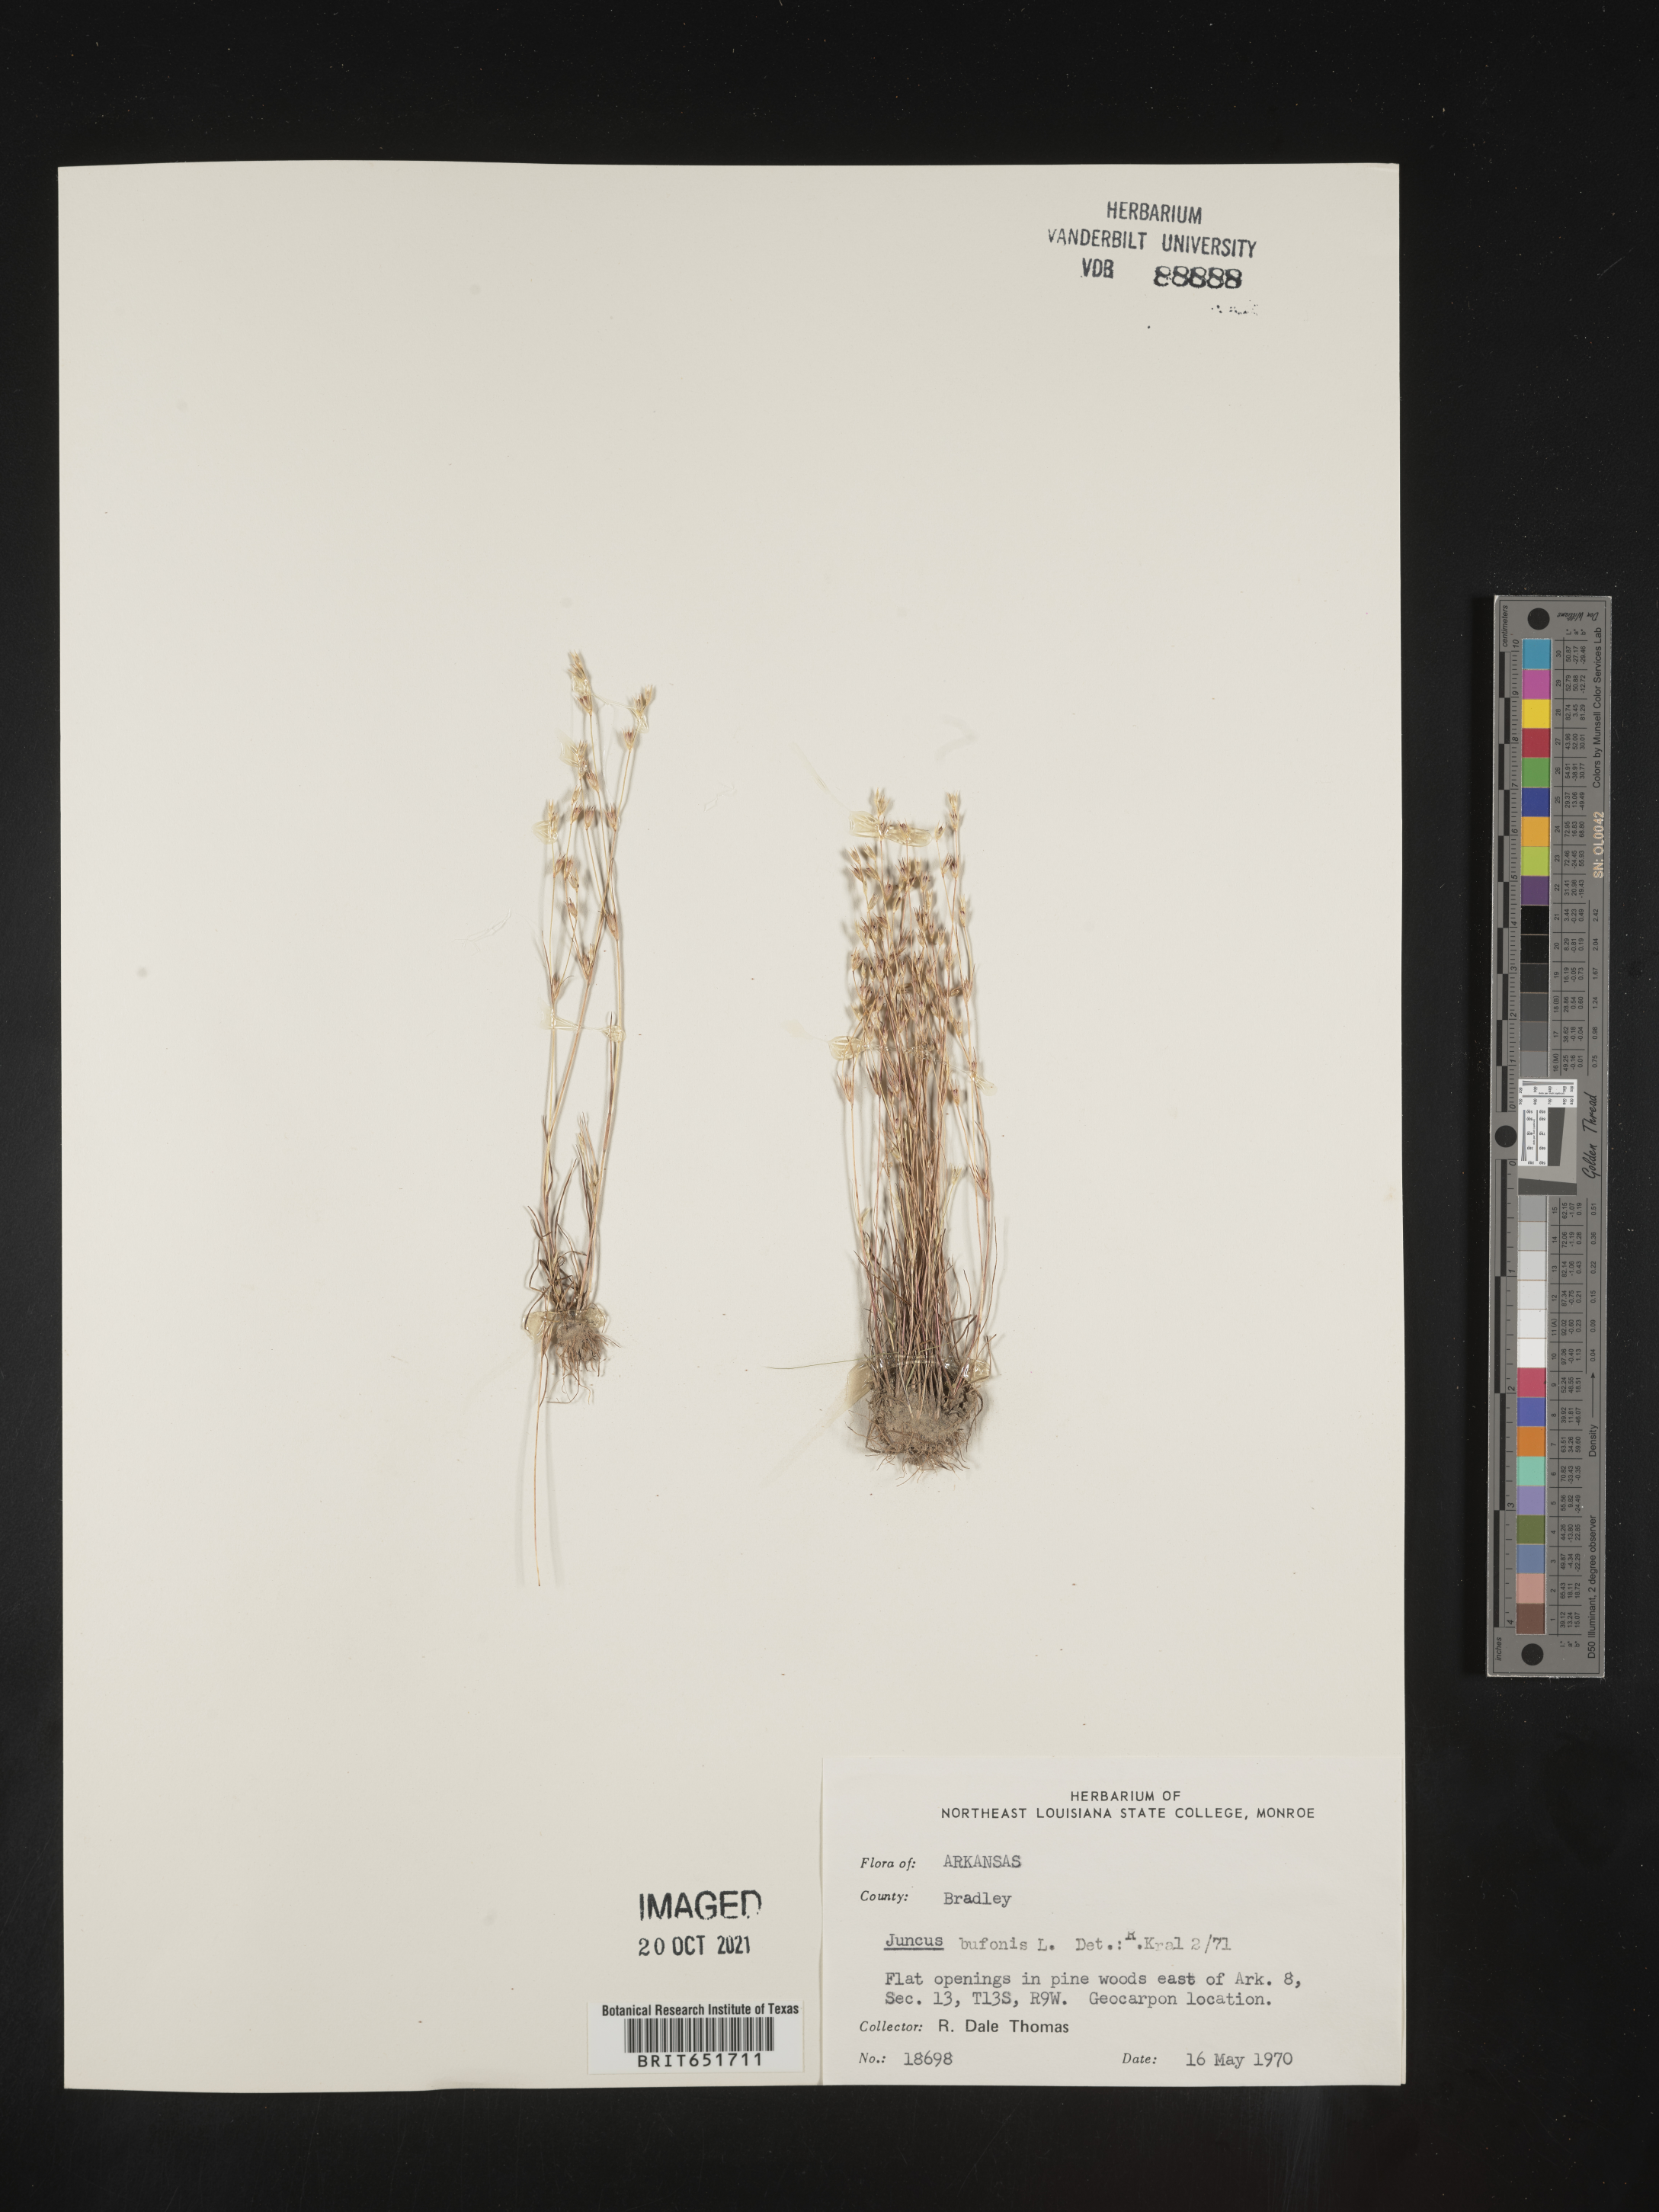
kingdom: Plantae
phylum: Tracheophyta
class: Liliopsida
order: Poales
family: Juncaceae
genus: Juncus
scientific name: Juncus bufonius
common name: Toad rush
